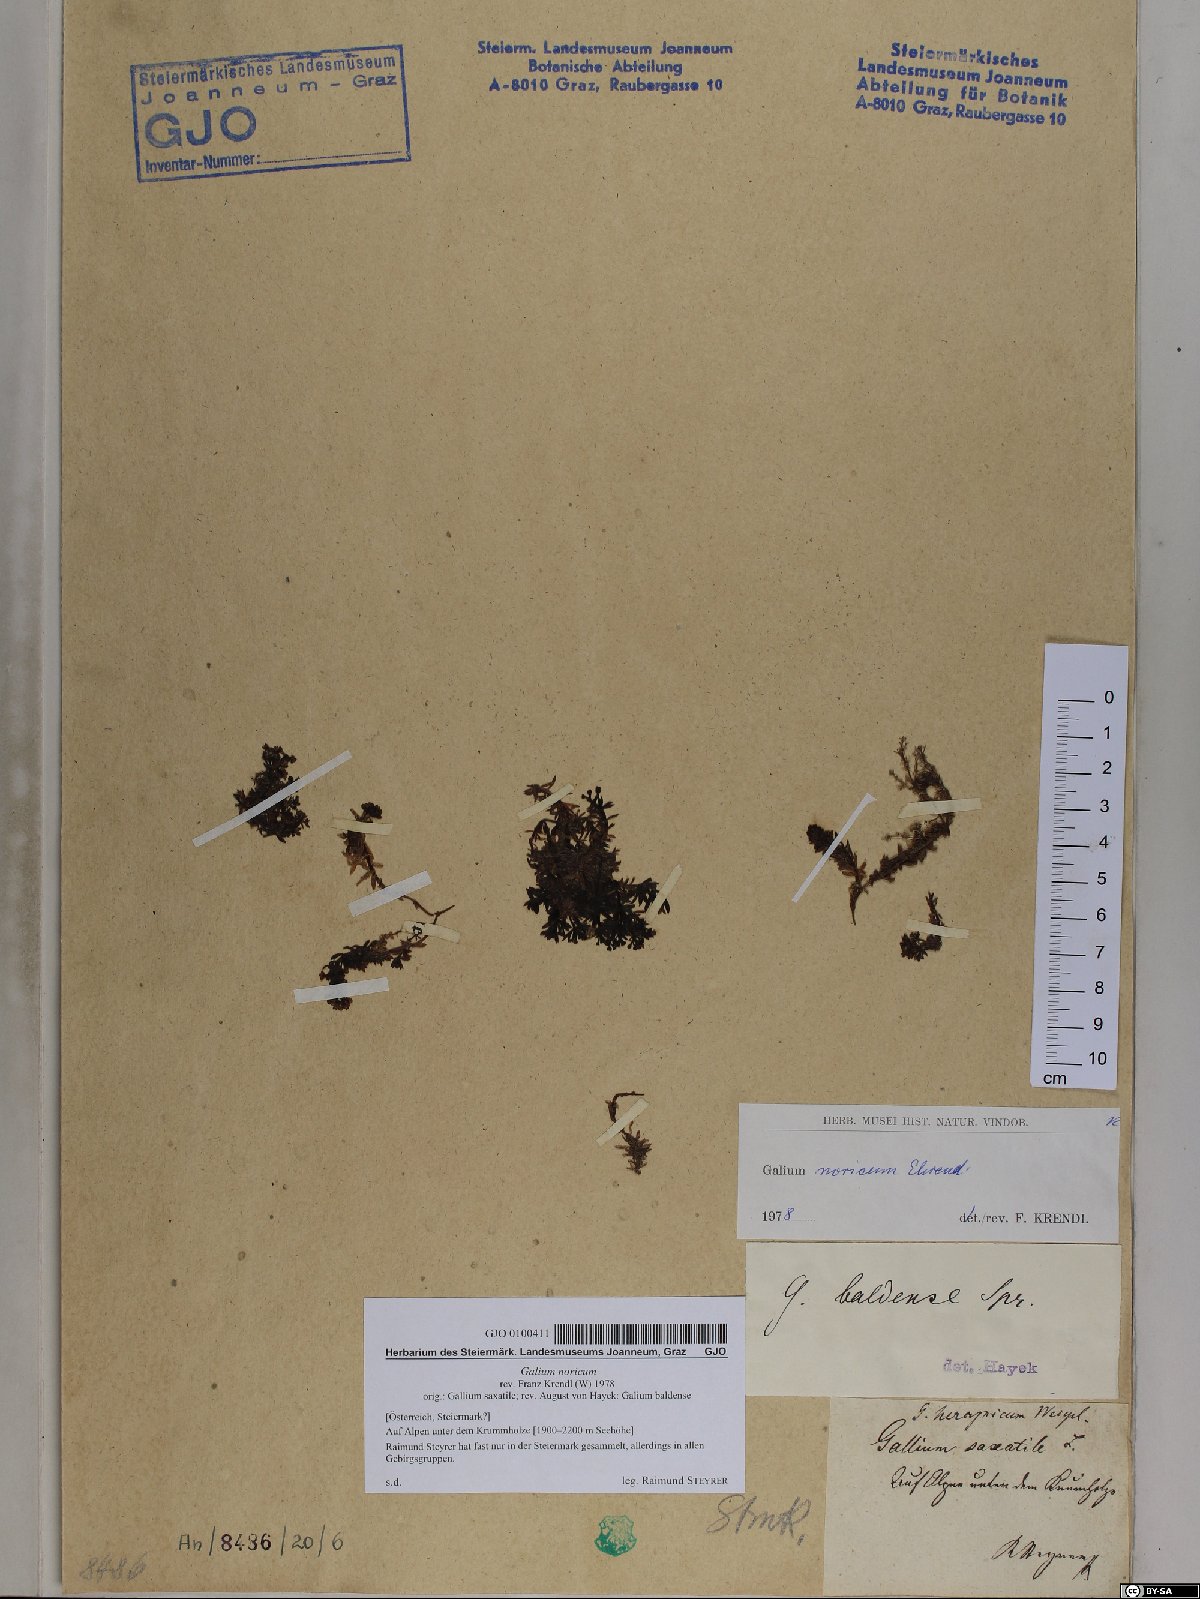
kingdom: Plantae
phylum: Tracheophyta
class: Magnoliopsida
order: Gentianales
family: Rubiaceae
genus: Galium
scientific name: Galium noricum
